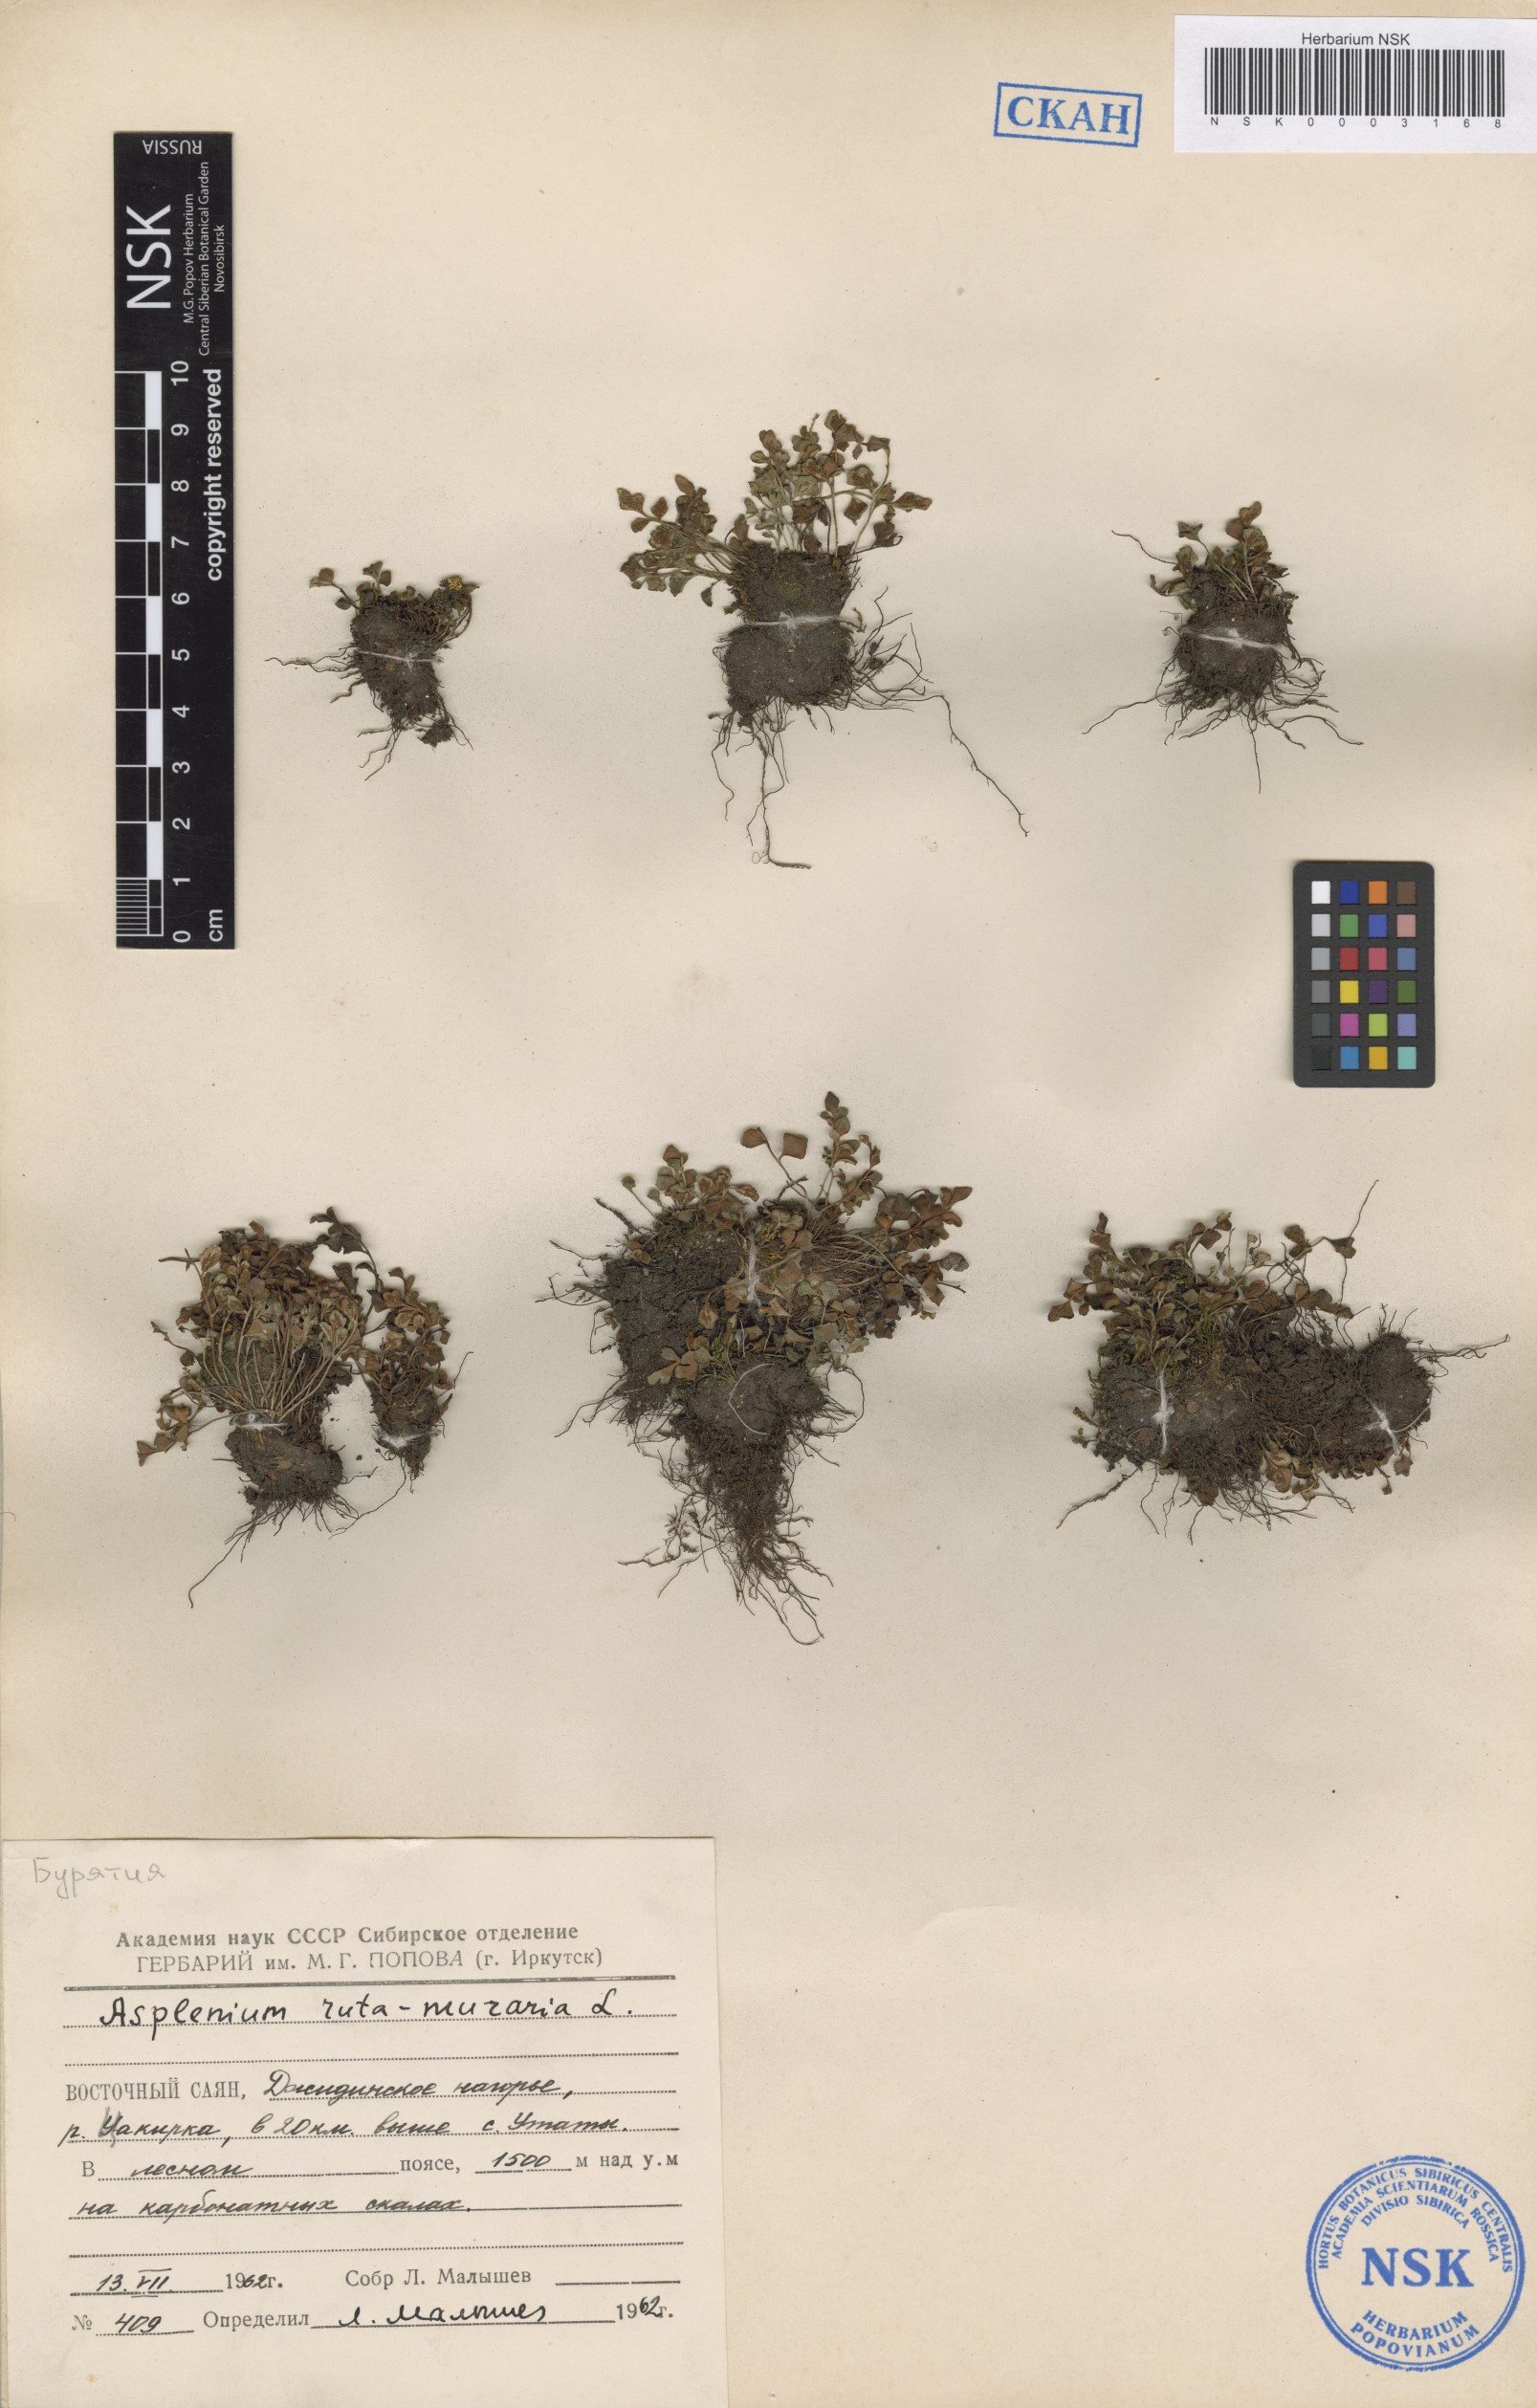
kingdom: Plantae
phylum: Tracheophyta
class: Polypodiopsida
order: Polypodiales
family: Aspleniaceae
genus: Asplenium
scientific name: Asplenium ruta-muraria
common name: Wall-rue
